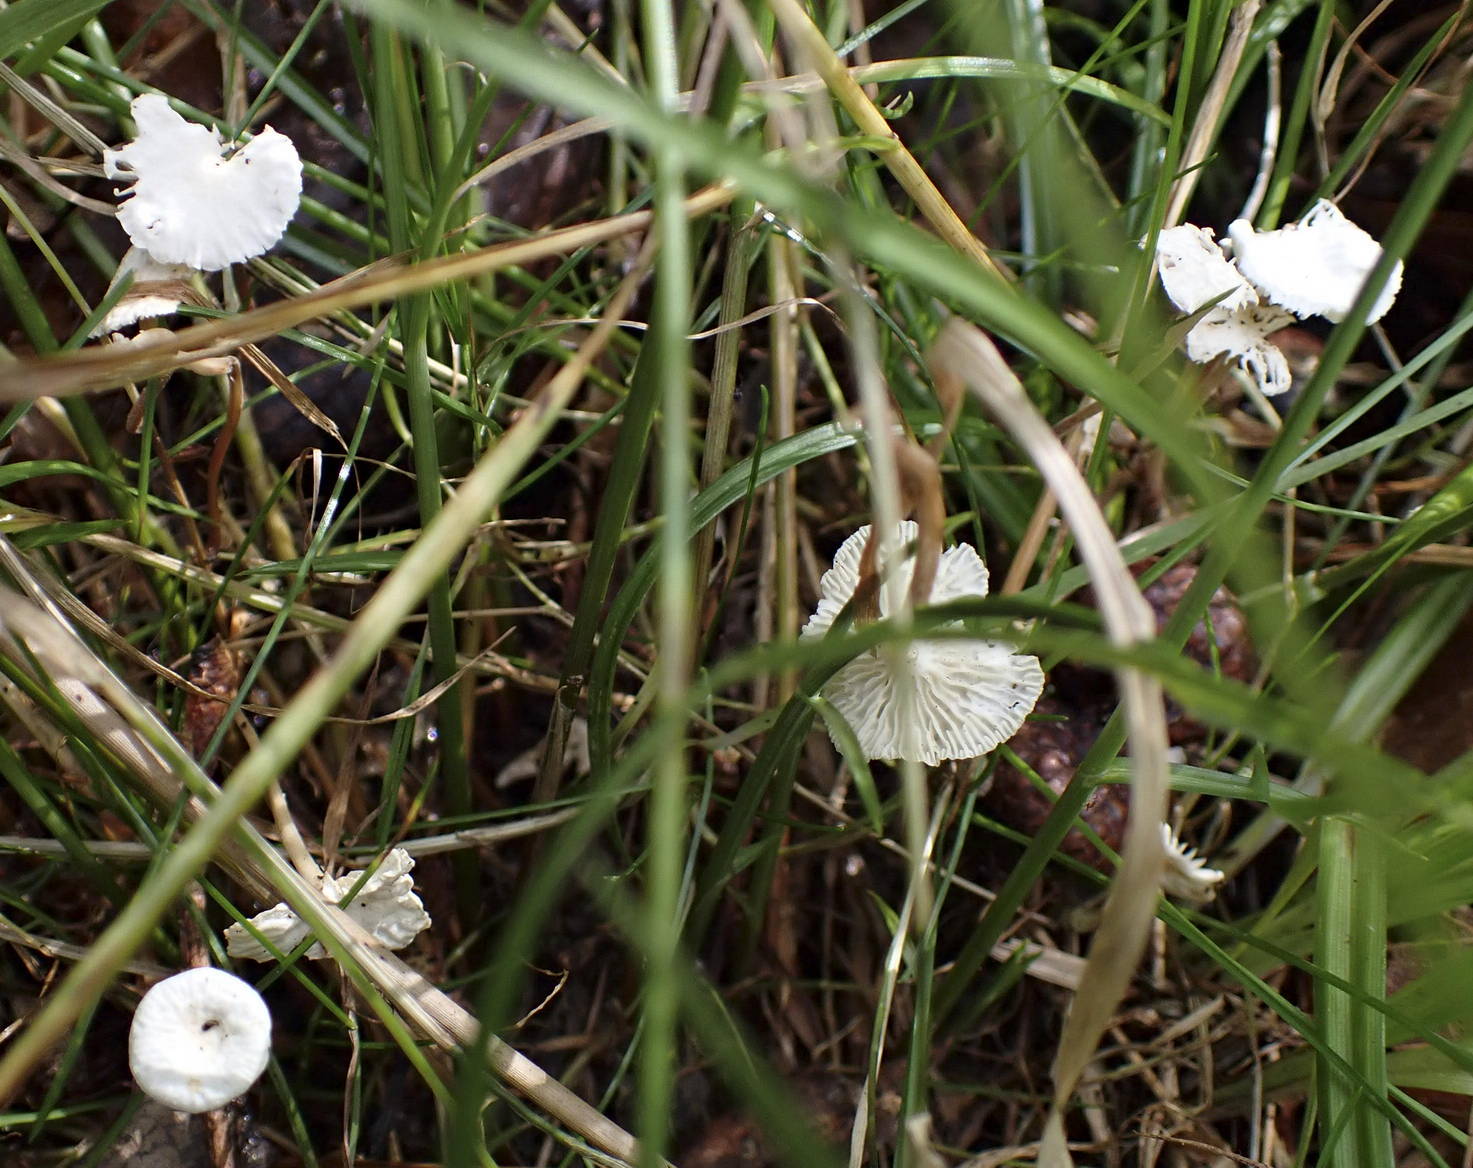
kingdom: Fungi
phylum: Basidiomycota
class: Agaricomycetes
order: Agaricales
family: Omphalotaceae
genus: Collybiopsis
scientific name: Collybiopsis vaillantii
